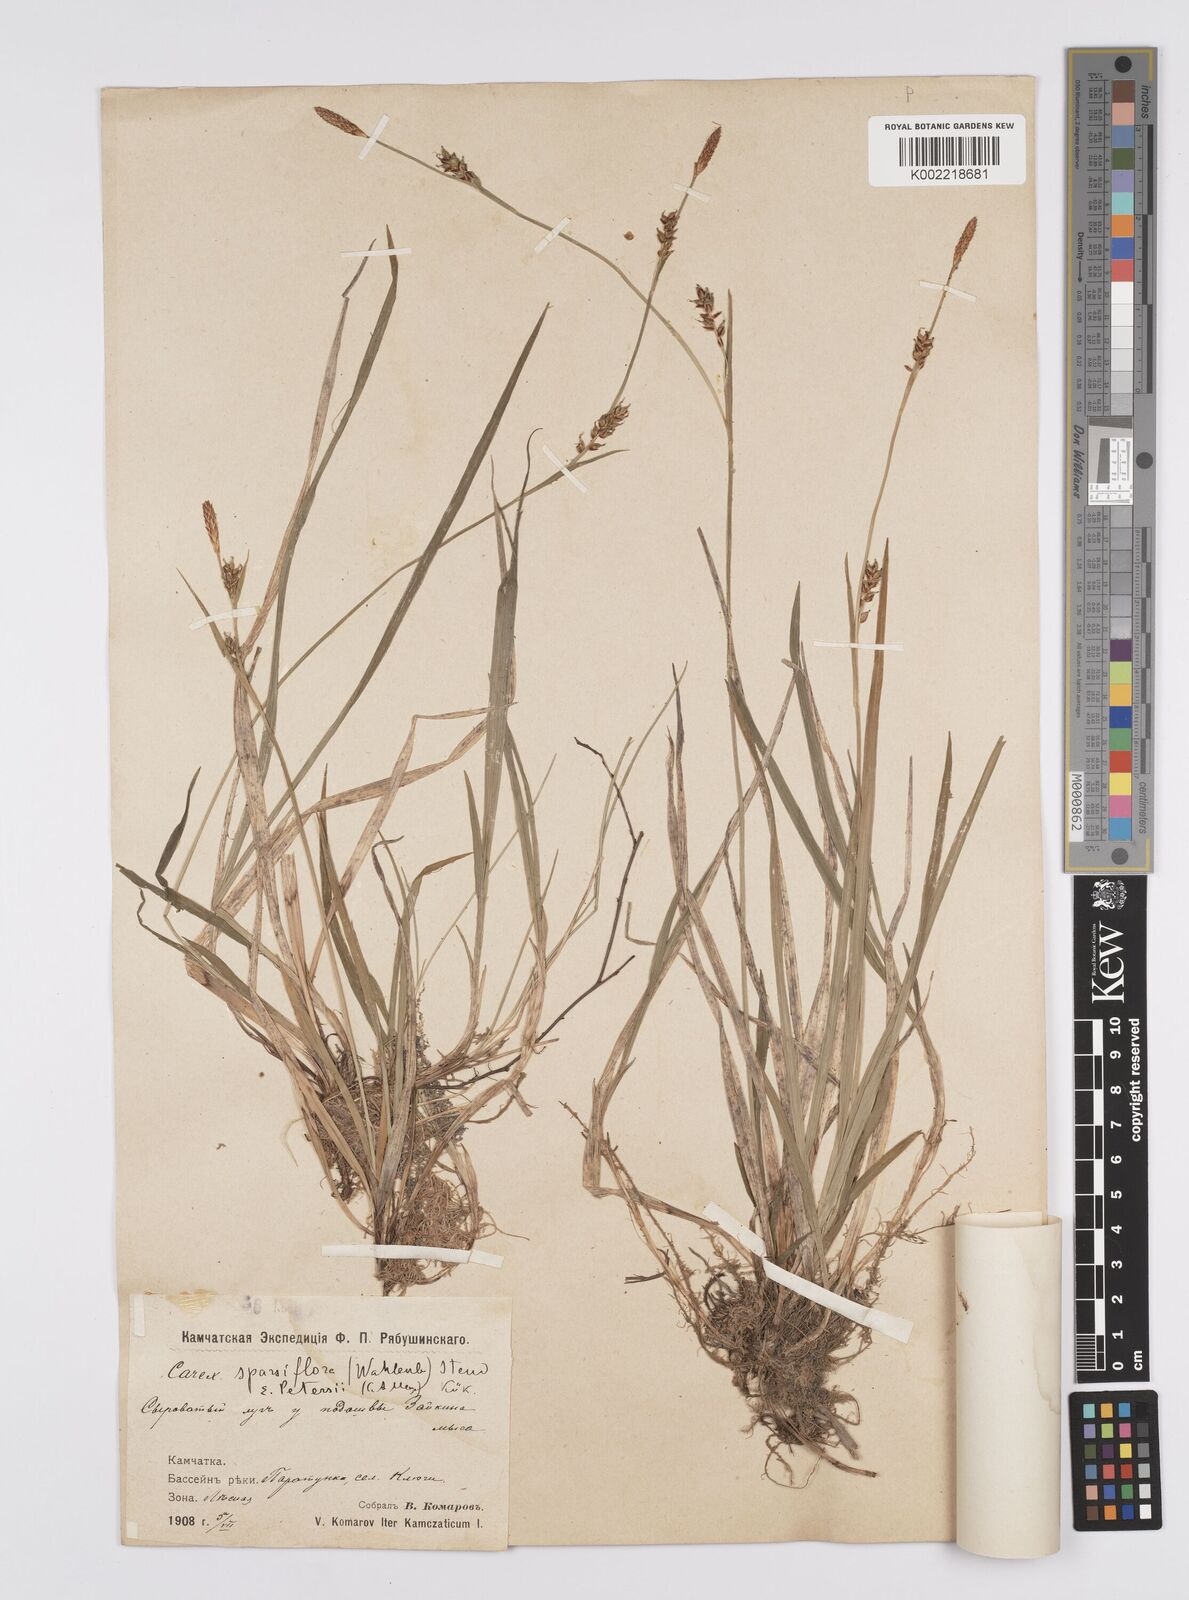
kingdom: Plantae
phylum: Tracheophyta
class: Liliopsida
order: Poales
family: Cyperaceae
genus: Carex
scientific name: Carex vaginata
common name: Sheathed sedge
